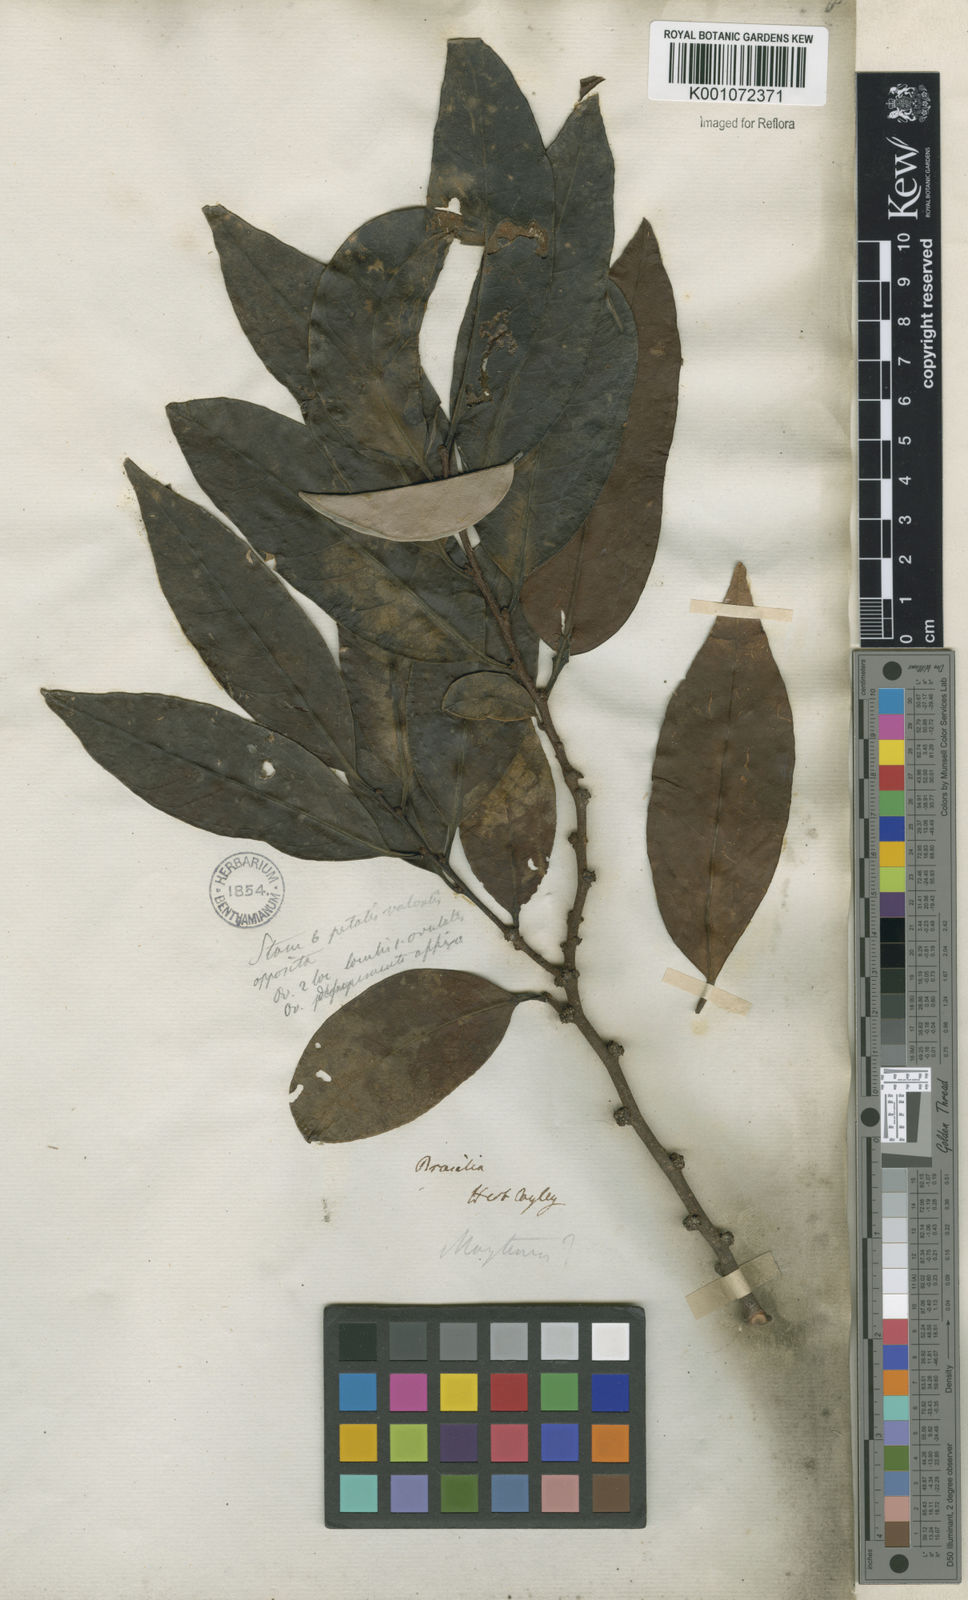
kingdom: Plantae
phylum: Tracheophyta
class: Magnoliopsida
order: Celastrales
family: Celastraceae
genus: Maytenus
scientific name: Maytenus
